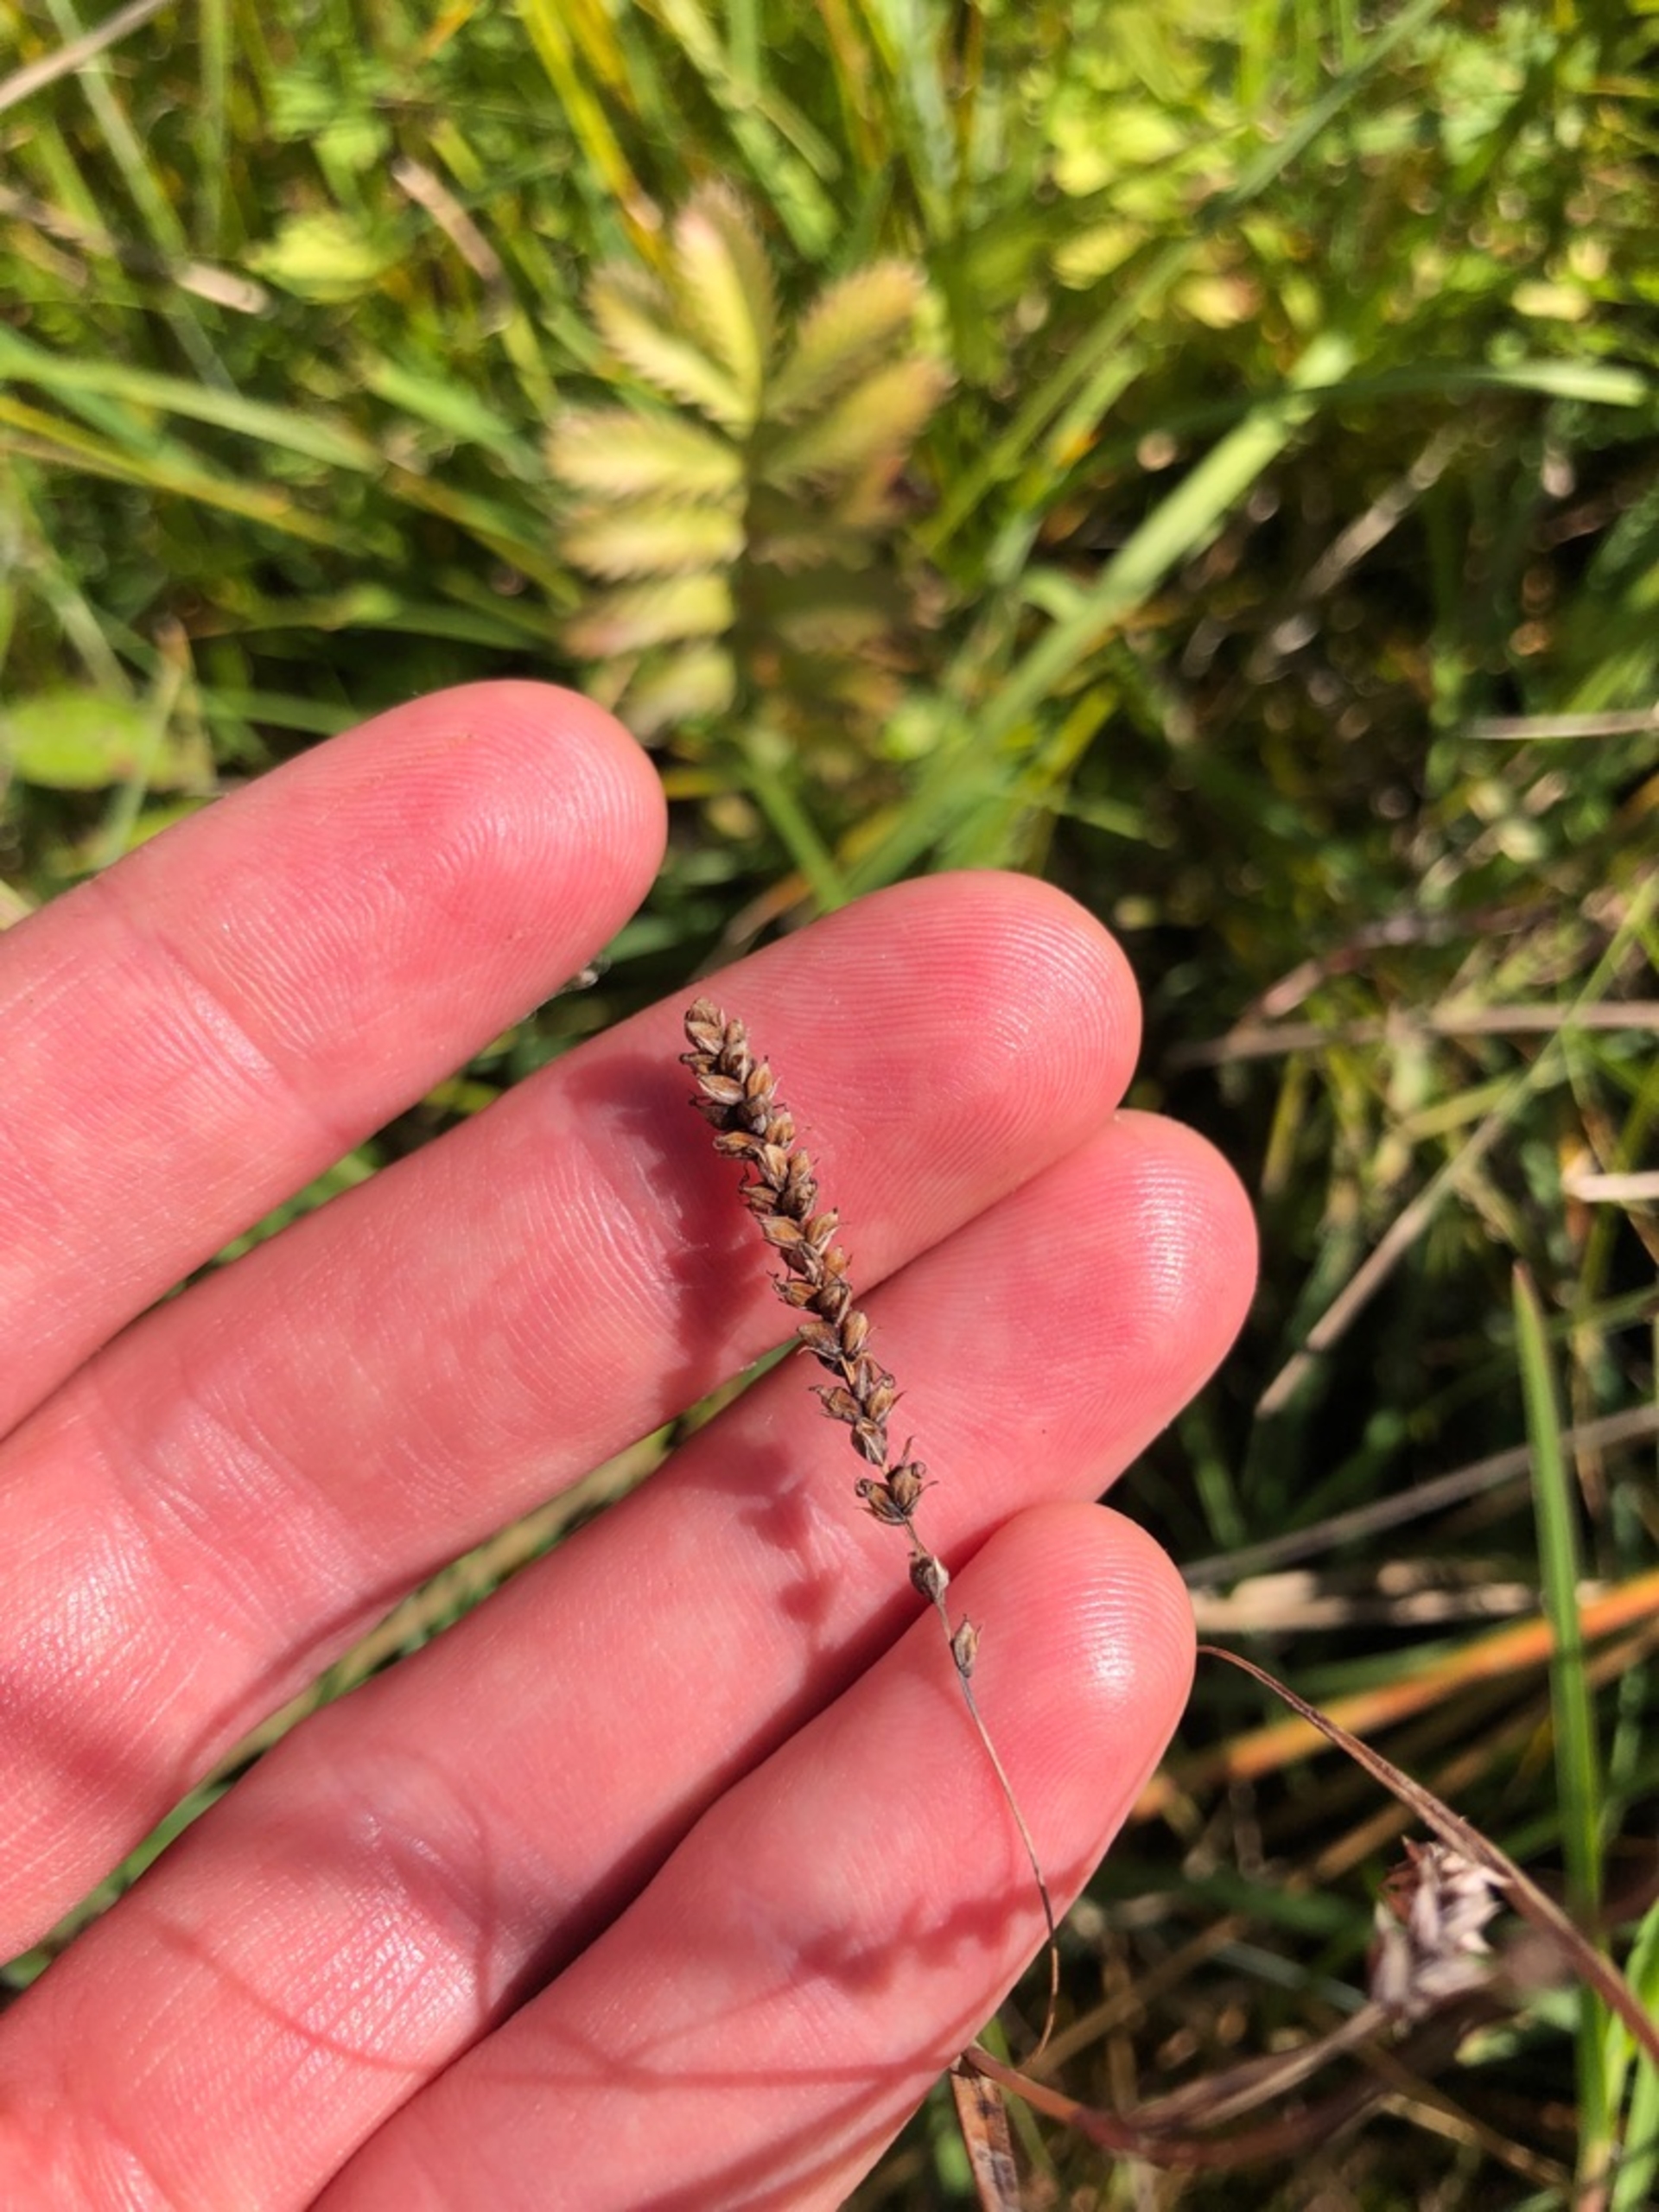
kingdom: Plantae
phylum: Tracheophyta
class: Liliopsida
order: Poales
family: Cyperaceae
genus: Carex
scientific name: Carex flacca
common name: Blågrøn star
